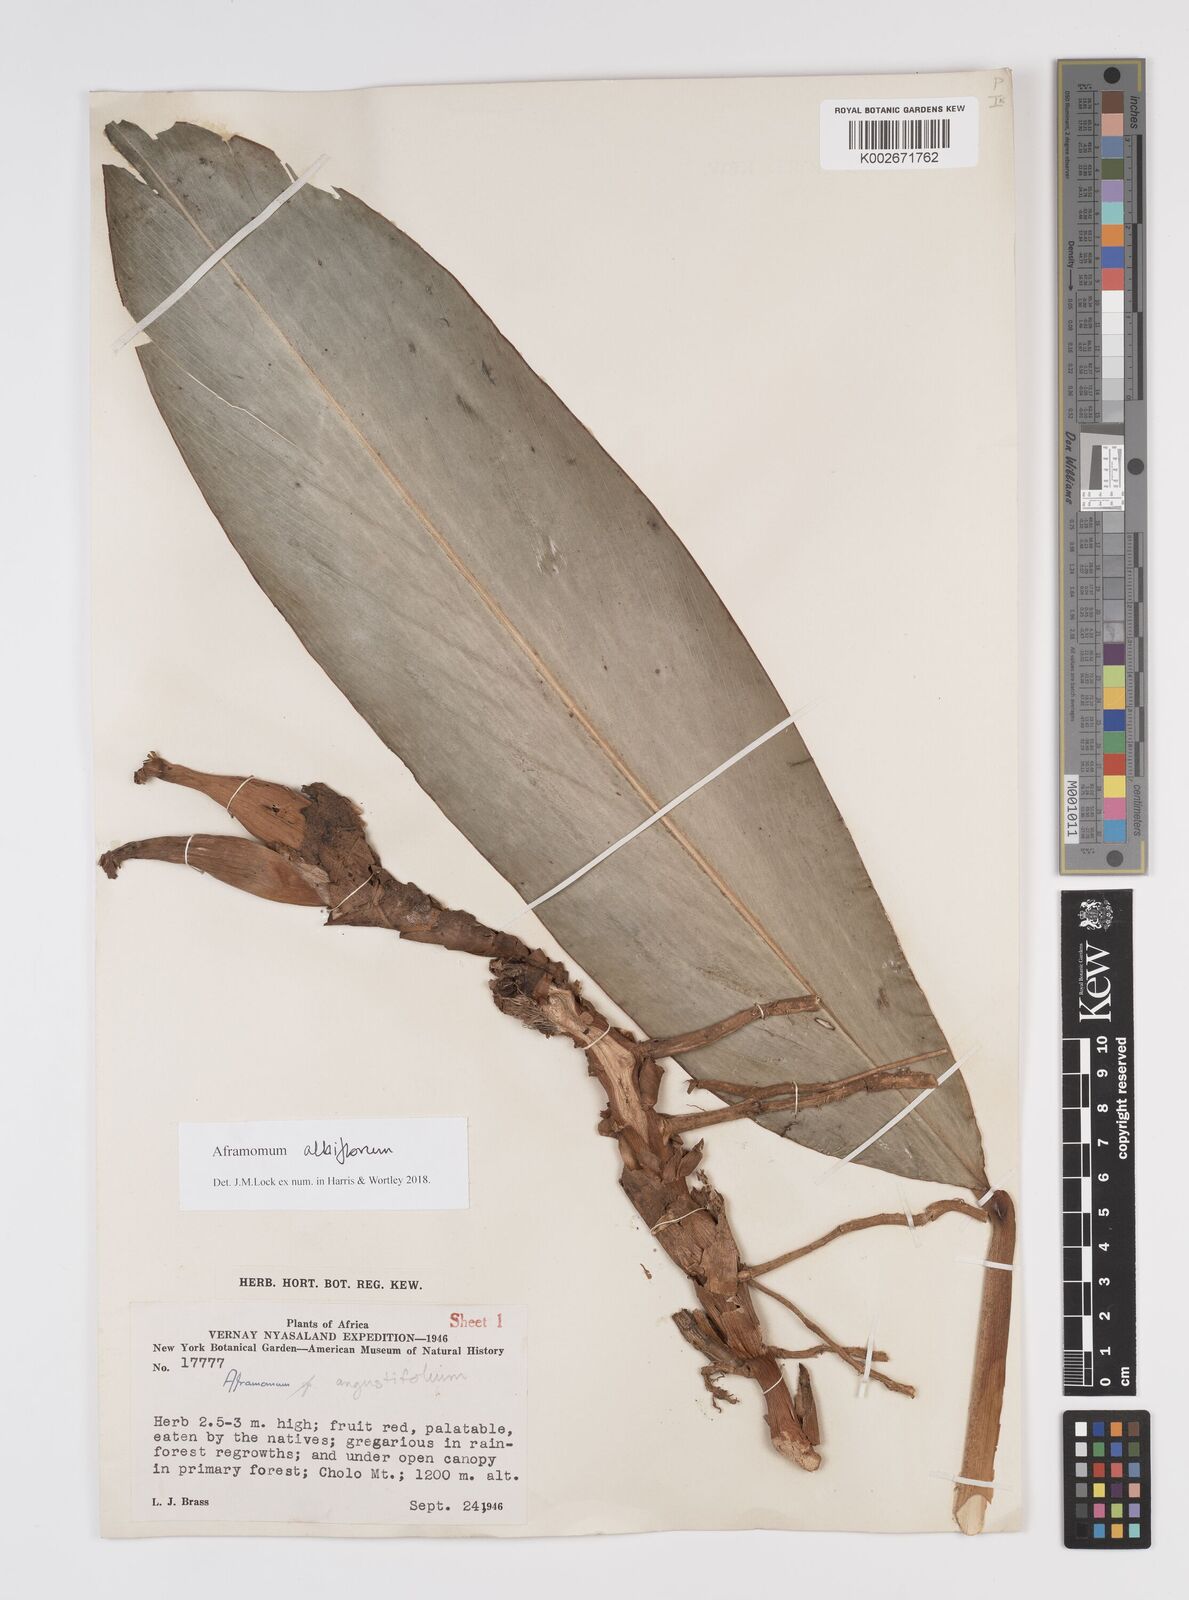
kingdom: Plantae
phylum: Tracheophyta
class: Liliopsida
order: Zingiberales
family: Zingiberaceae
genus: Aframomum
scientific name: Aframomum albiflorum
